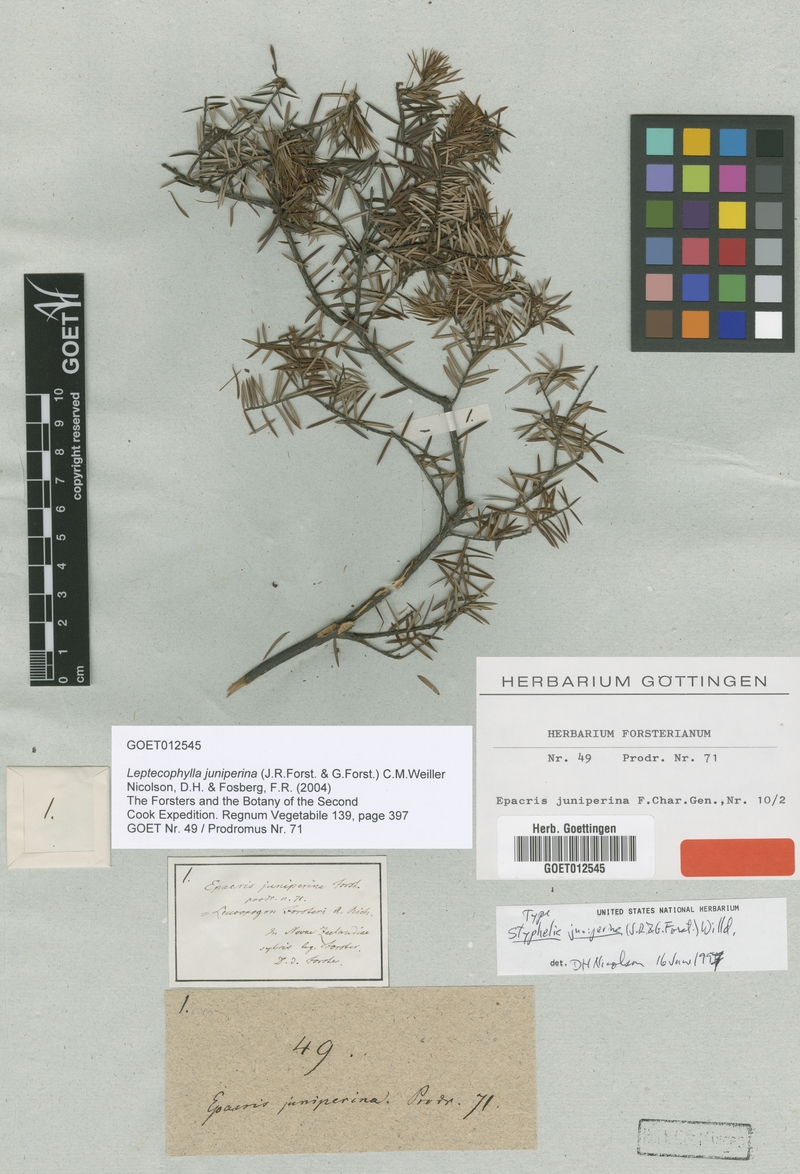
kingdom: Plantae
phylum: Tracheophyta
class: Magnoliopsida
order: Ericales
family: Ericaceae
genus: Leptecophylla
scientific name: Leptecophylla juniperina
